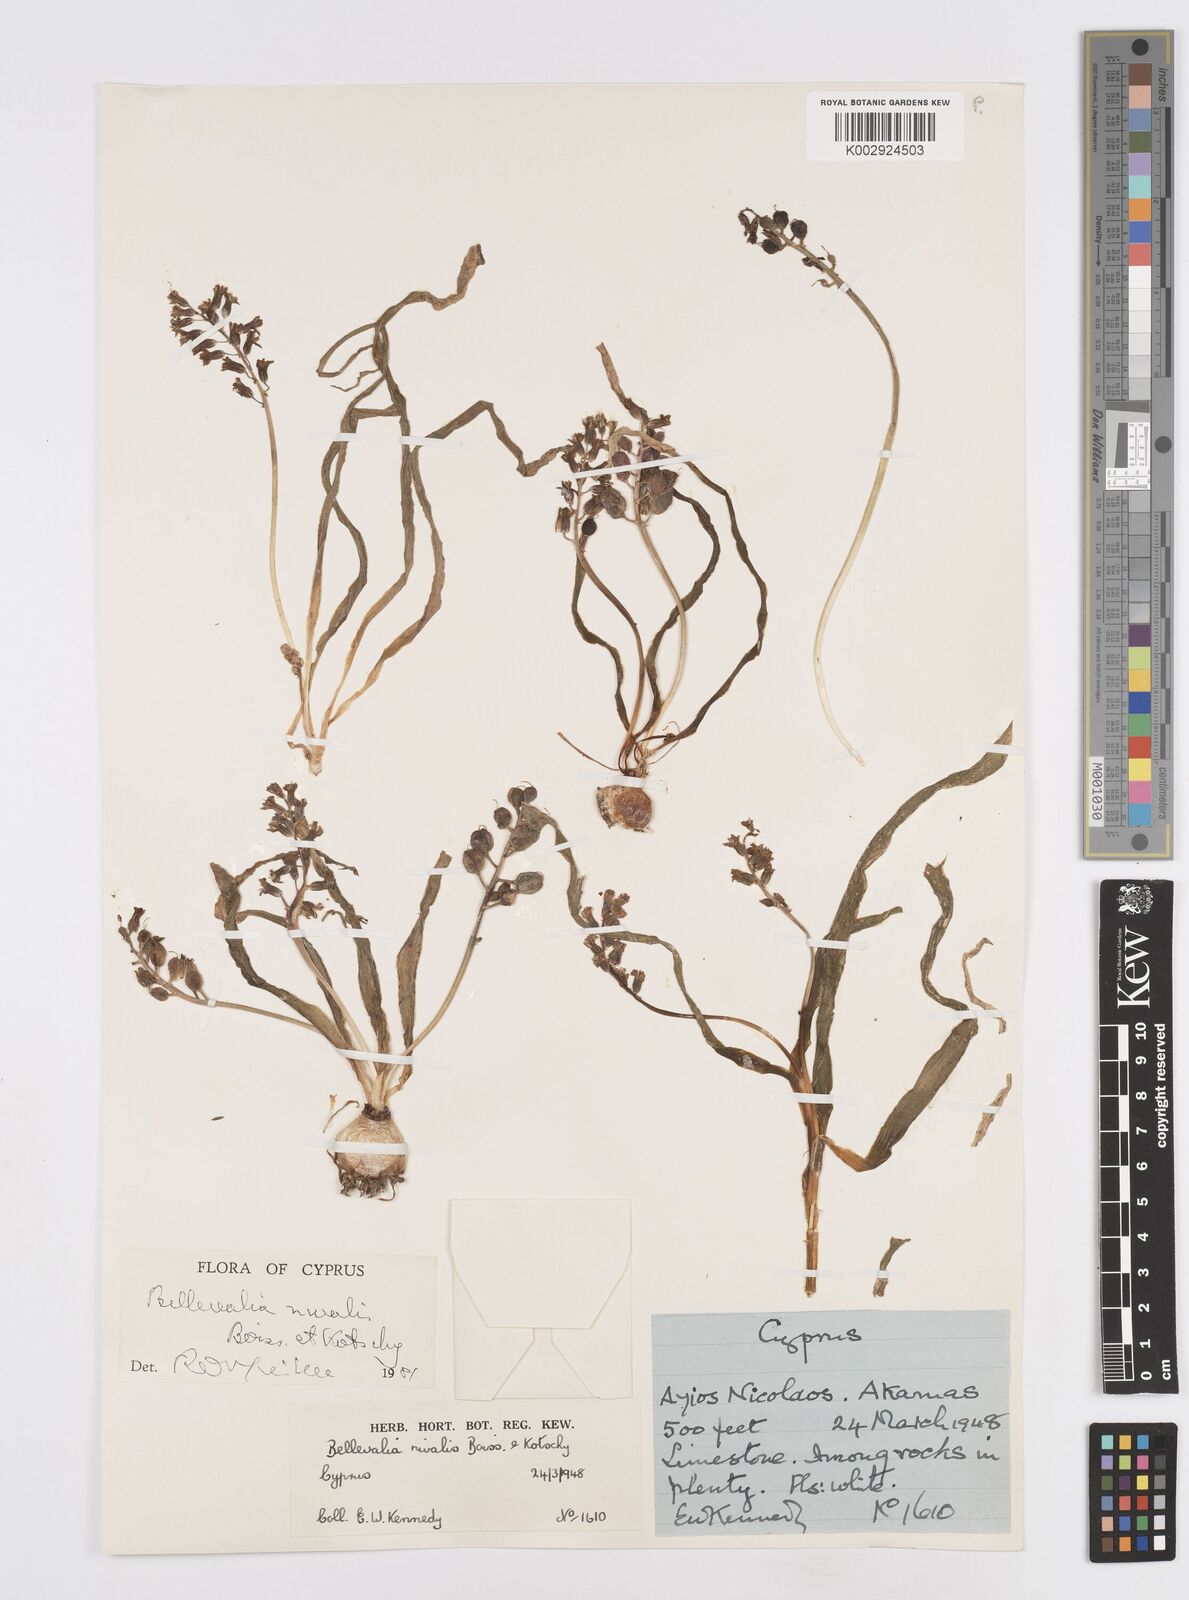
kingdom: Plantae
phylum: Tracheophyta
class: Liliopsida
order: Asparagales
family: Asparagaceae
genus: Bellevalia
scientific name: Bellevalia nivalis
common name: Snow bellevalia
